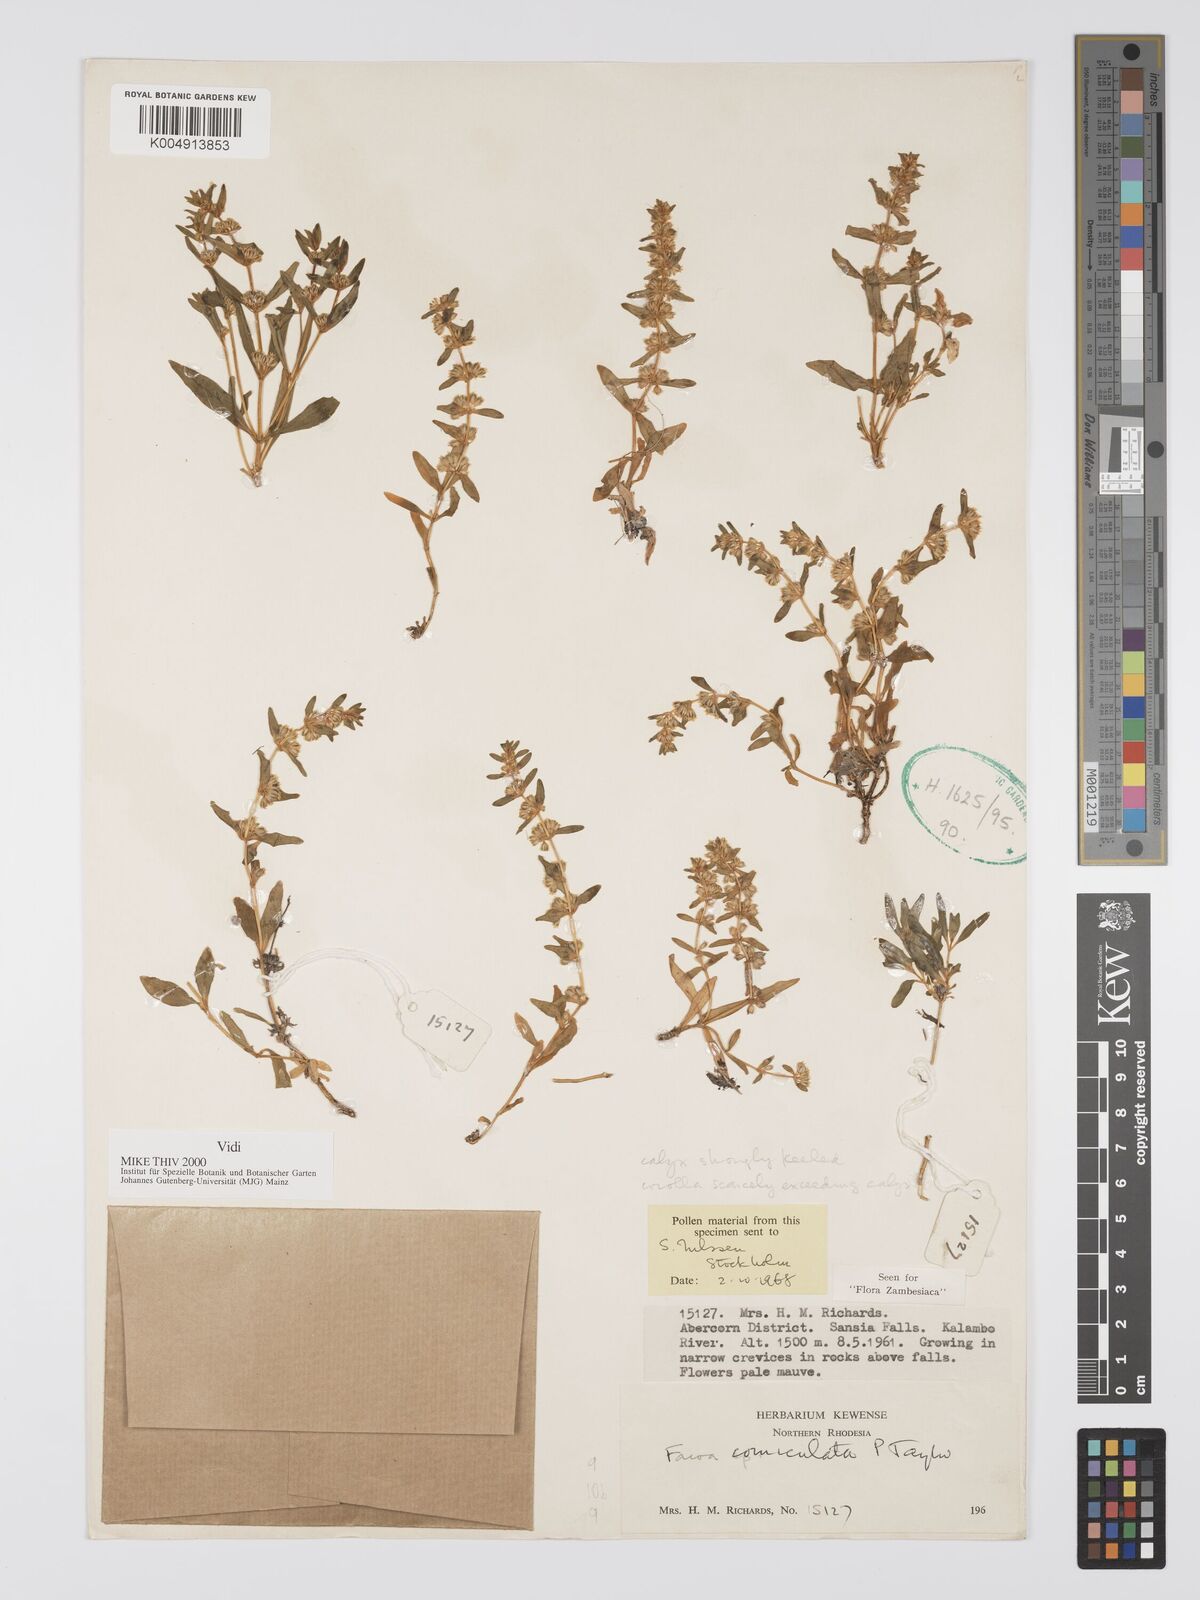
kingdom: Plantae
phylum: Tracheophyta
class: Magnoliopsida
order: Gentianales
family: Gentianaceae
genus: Faroa
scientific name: Faroa corniculata
